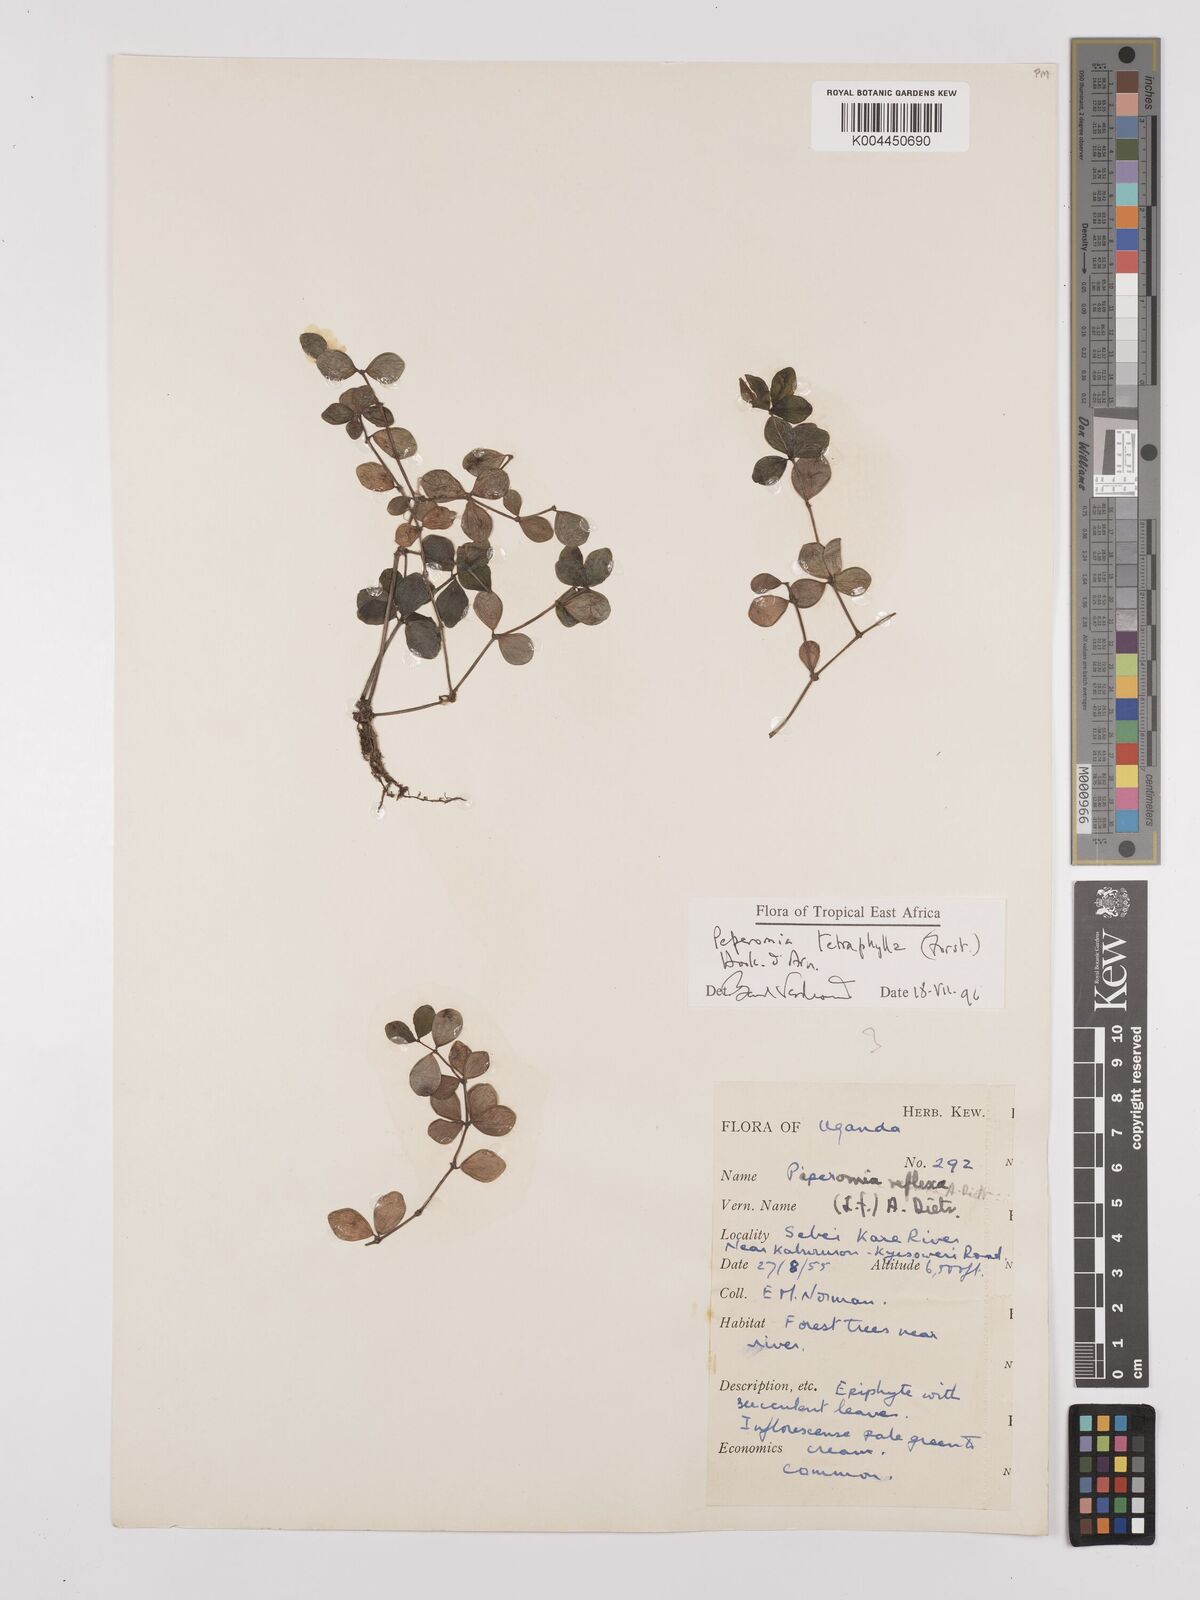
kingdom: Plantae
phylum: Tracheophyta
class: Magnoliopsida
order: Piperales
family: Piperaceae
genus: Peperomia
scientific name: Peperomia tetraphylla
